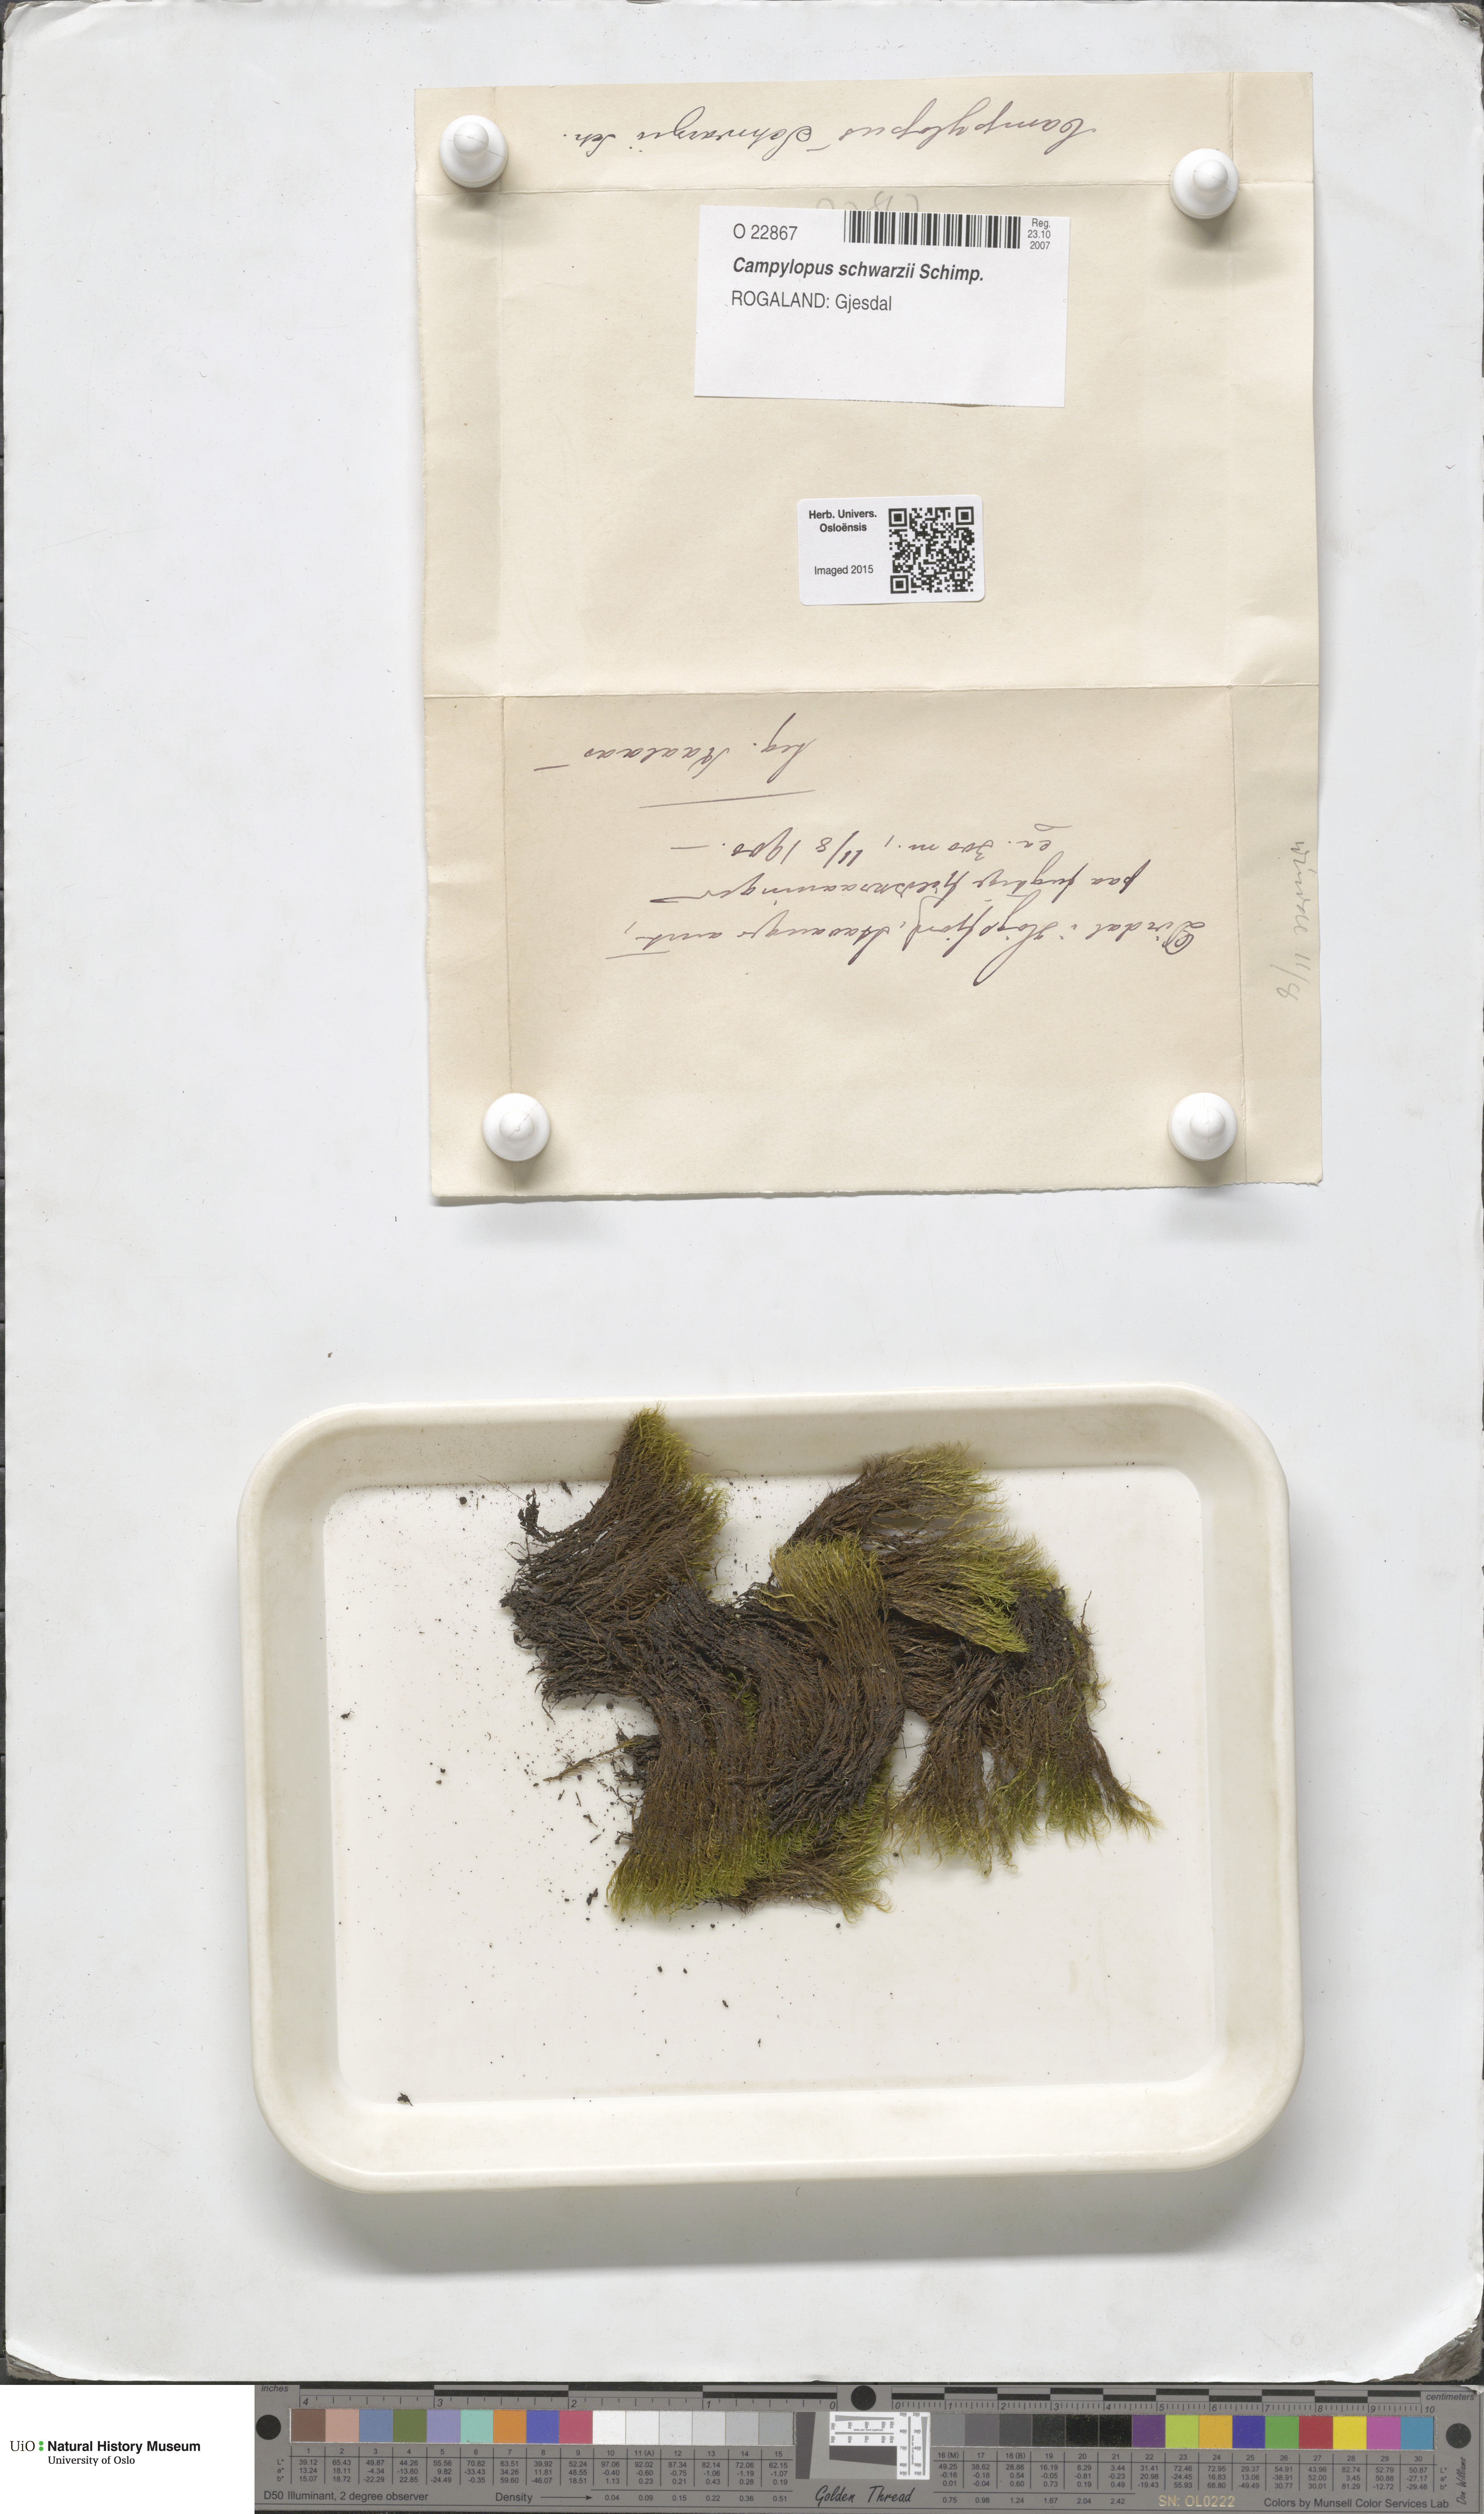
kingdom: Plantae
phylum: Bryophyta
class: Bryopsida
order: Dicranales
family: Leucobryaceae
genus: Campylopus
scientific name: Campylopus gracilis
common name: Schwarz's swan-neck moss
